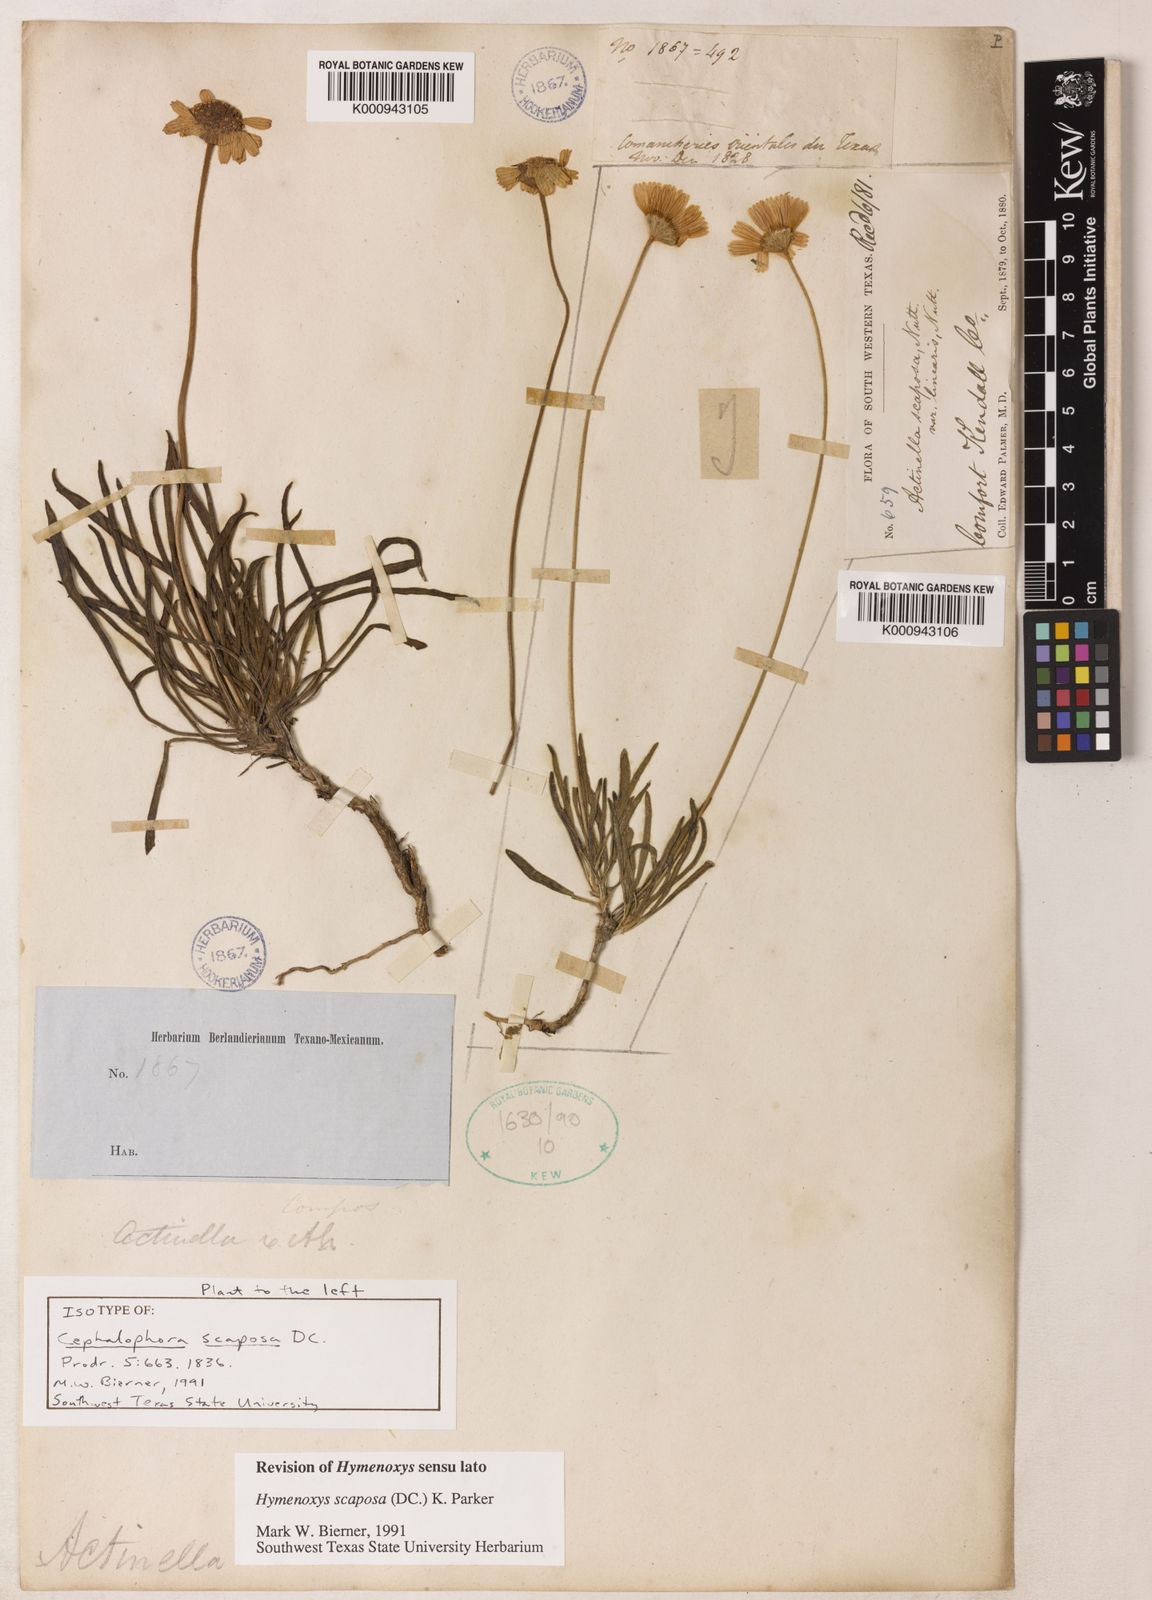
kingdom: Plantae
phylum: Tracheophyta
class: Magnoliopsida
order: Asterales
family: Asteraceae
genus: Tetraneuris
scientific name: Tetraneuris scaposa
